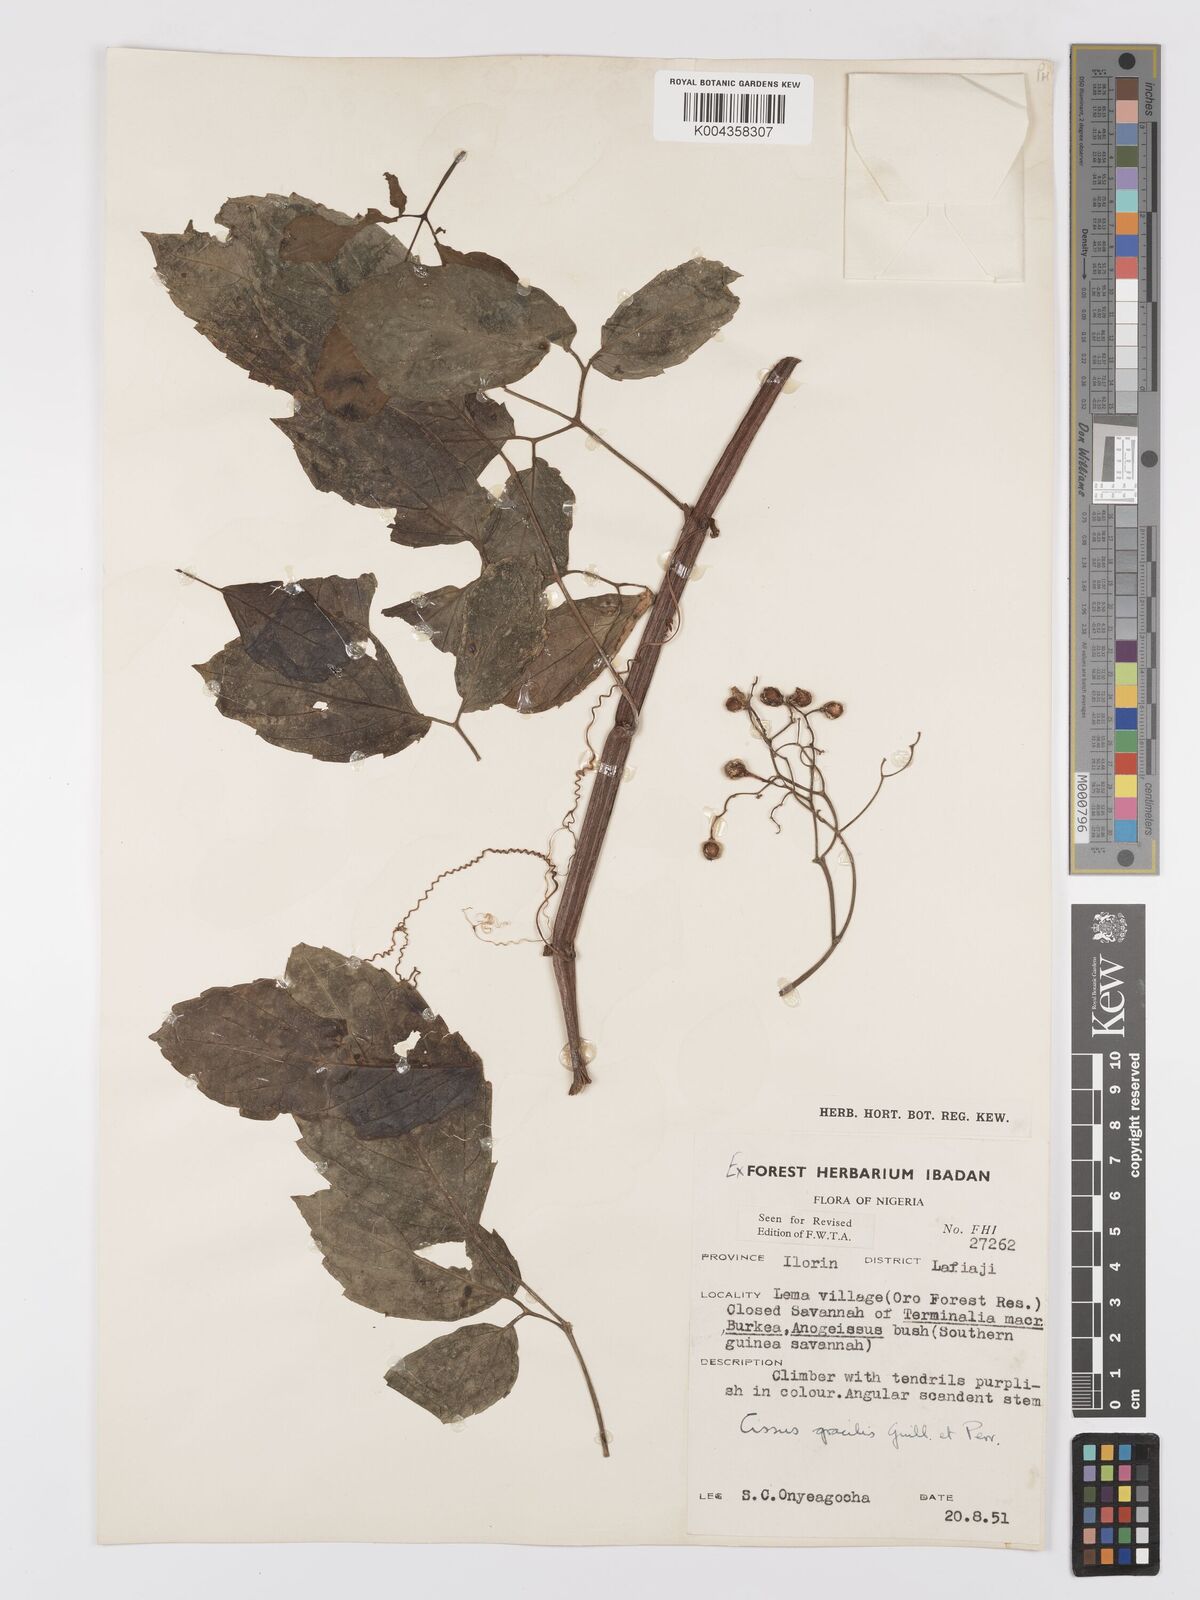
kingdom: Plantae
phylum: Tracheophyta
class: Magnoliopsida
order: Vitales
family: Vitaceae
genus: Afrocayratia
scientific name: Afrocayratia gracilis
